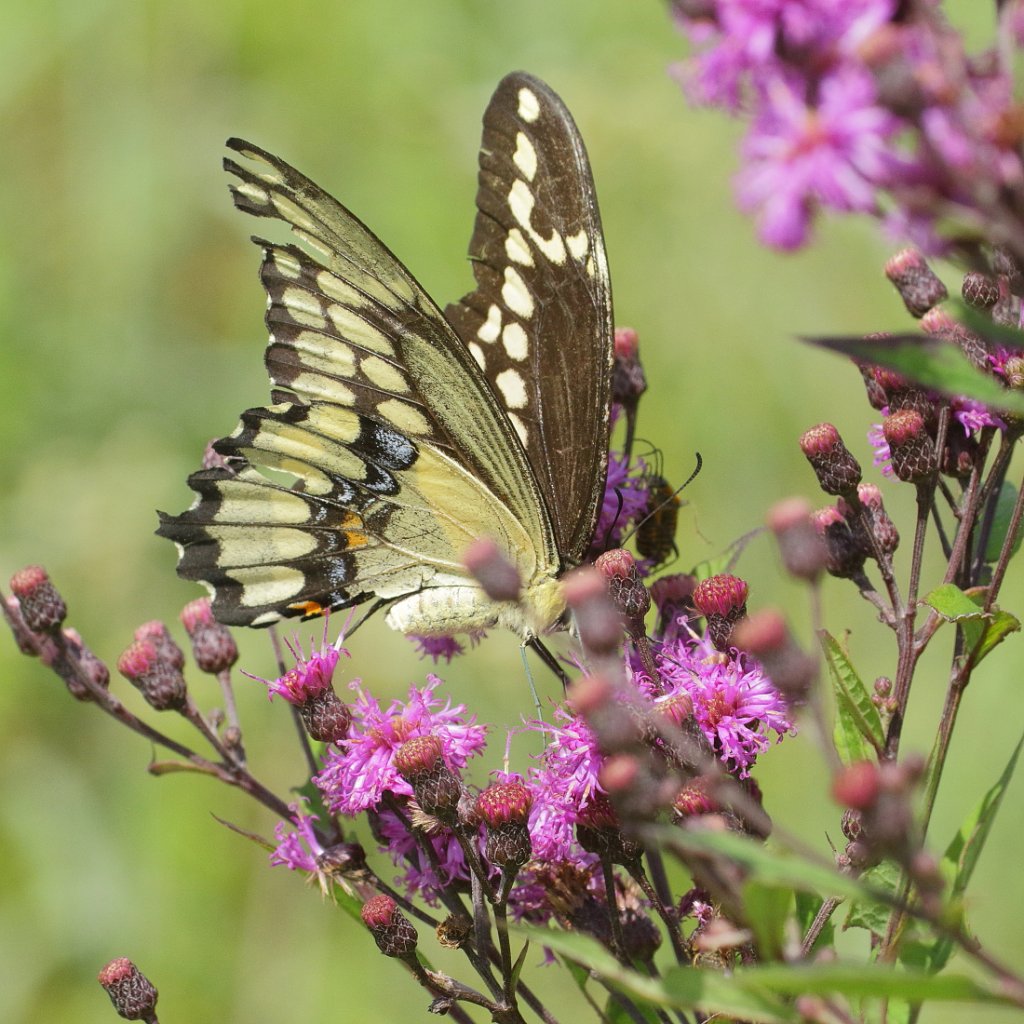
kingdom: Animalia
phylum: Arthropoda
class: Insecta
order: Lepidoptera
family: Papilionidae
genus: Papilio
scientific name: Papilio cresphontes
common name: Eastern Giant Swallowtail
